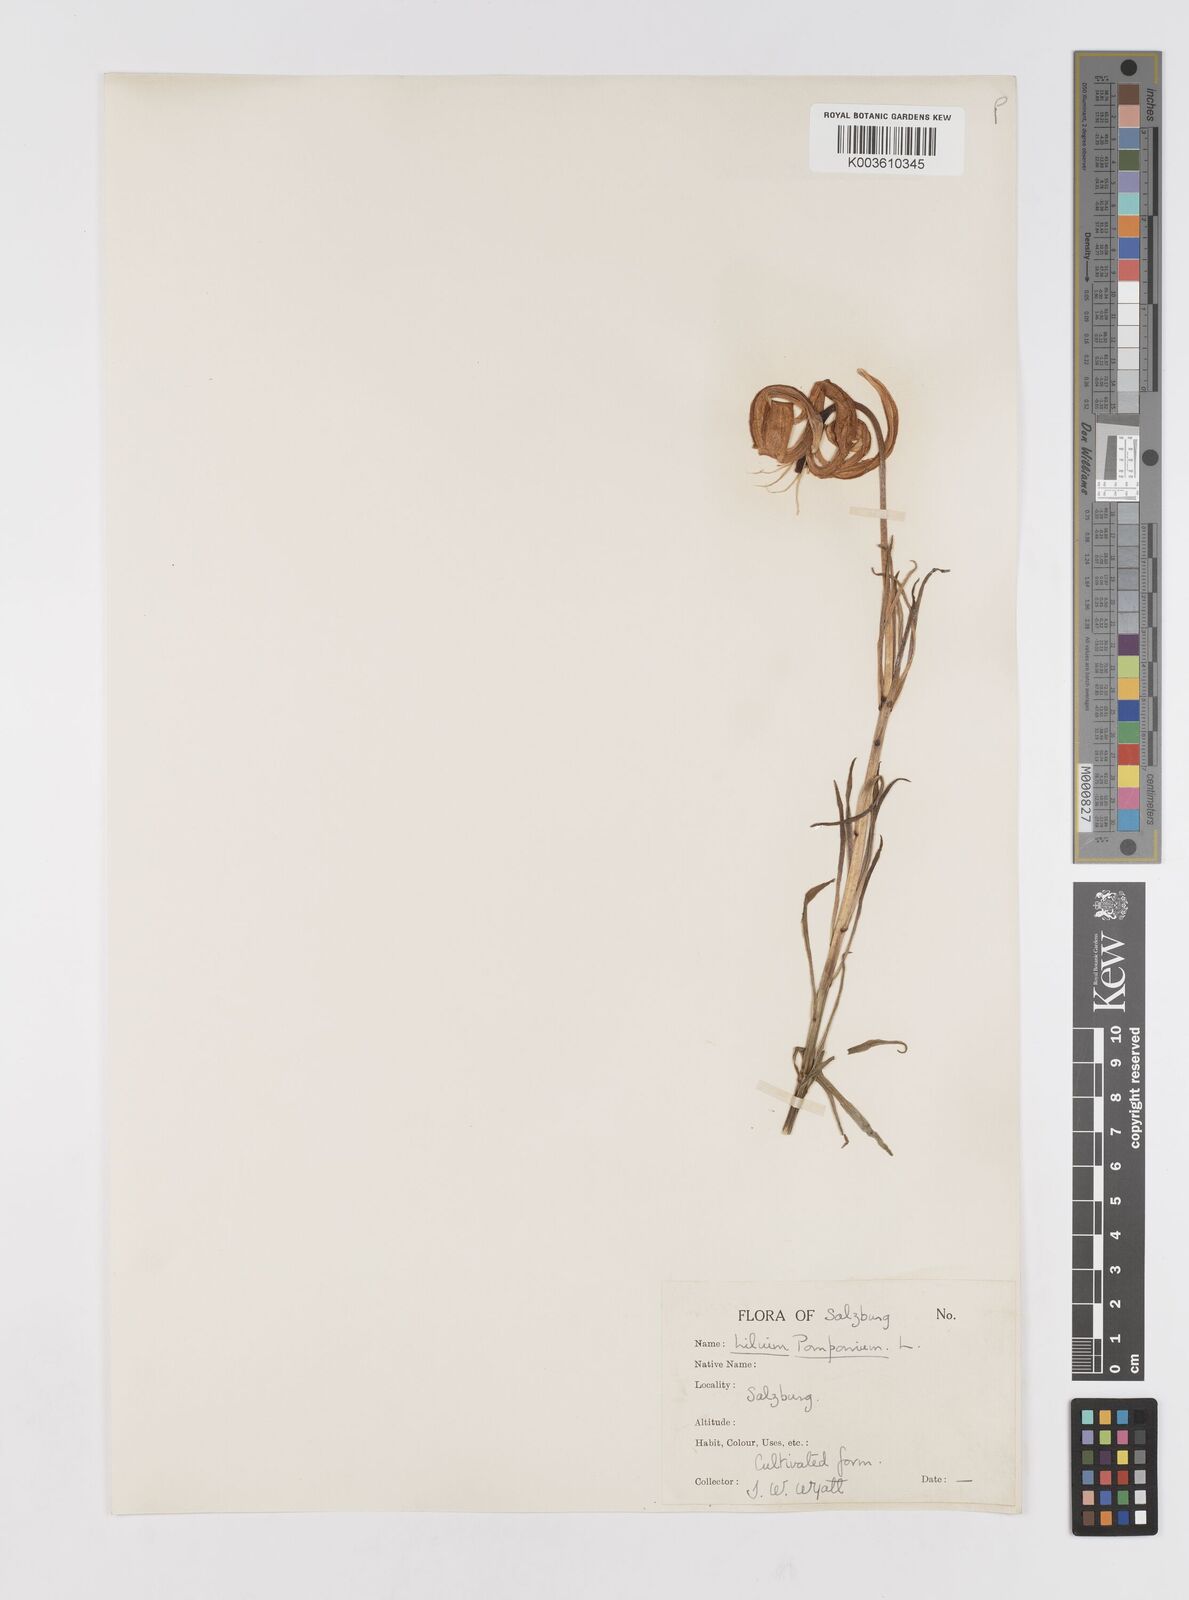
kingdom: Plantae
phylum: Tracheophyta
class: Liliopsida
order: Liliales
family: Liliaceae
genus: Lilium
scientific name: Lilium
